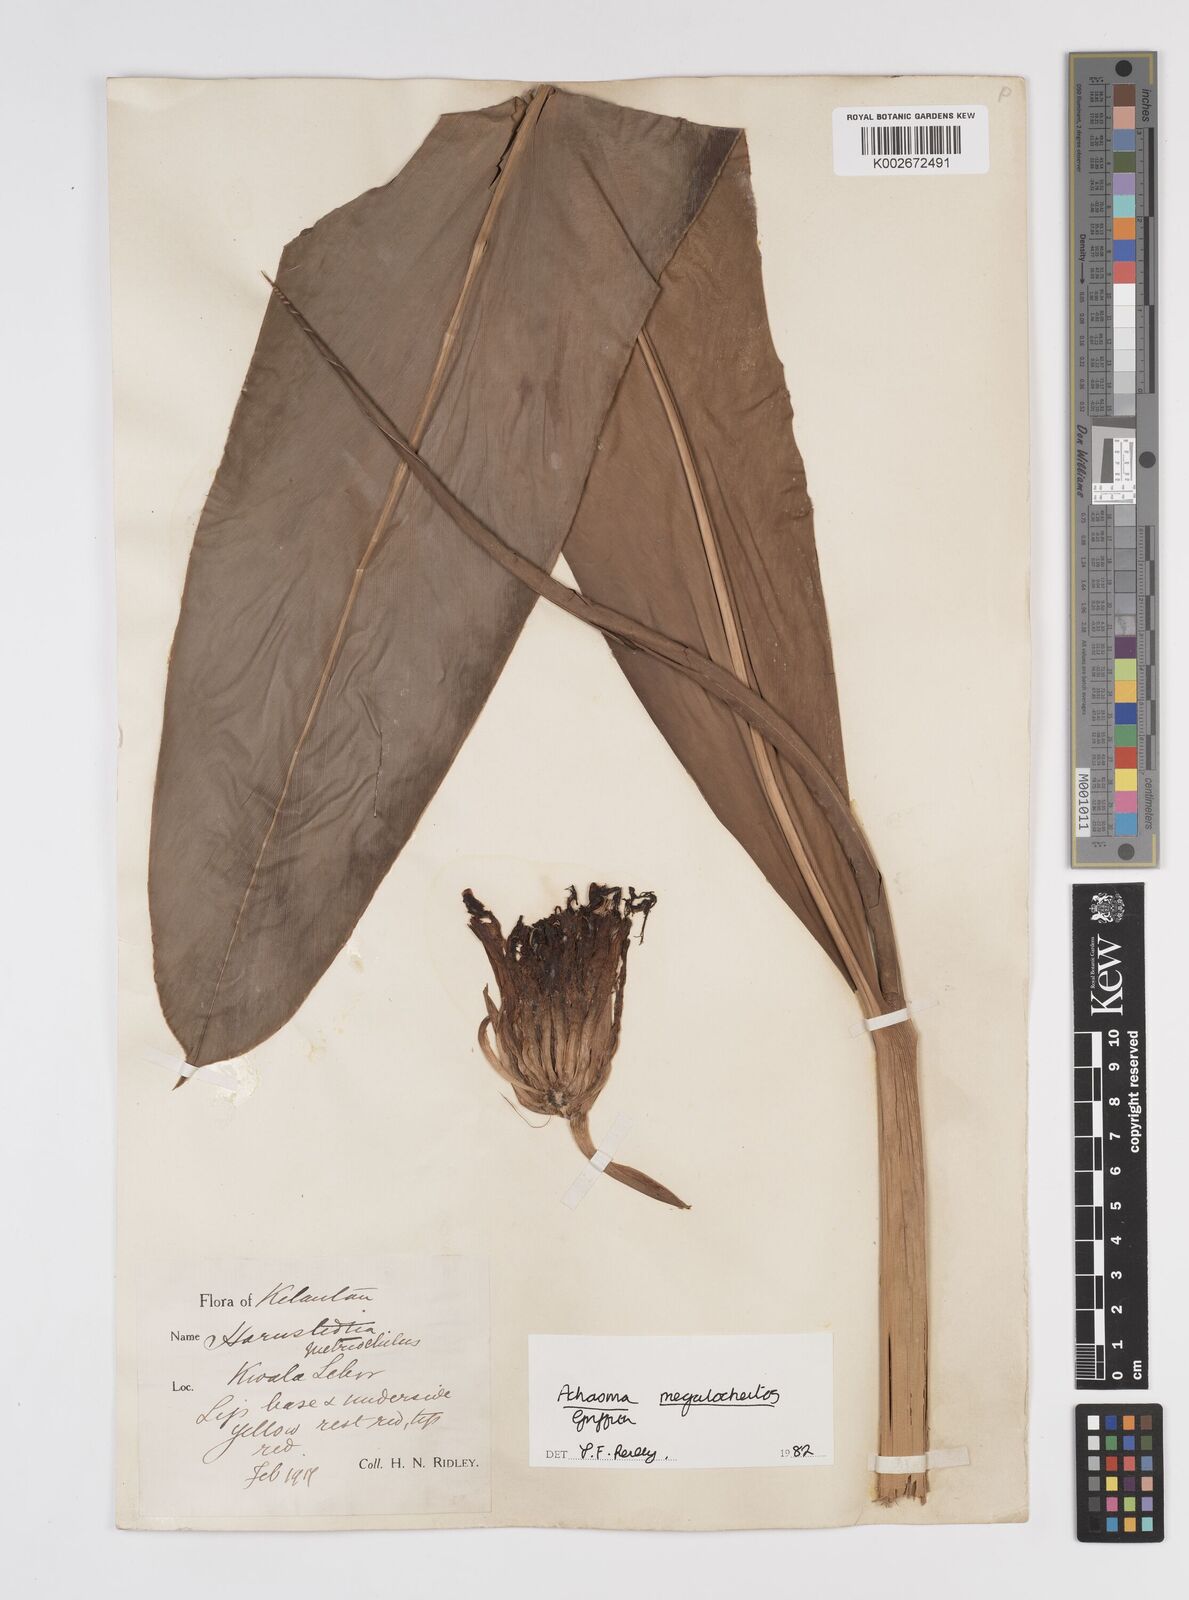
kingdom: Plantae
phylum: Tracheophyta
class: Liliopsida
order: Zingiberales
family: Zingiberaceae
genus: Etlingera
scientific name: Etlingera metriocheilos
